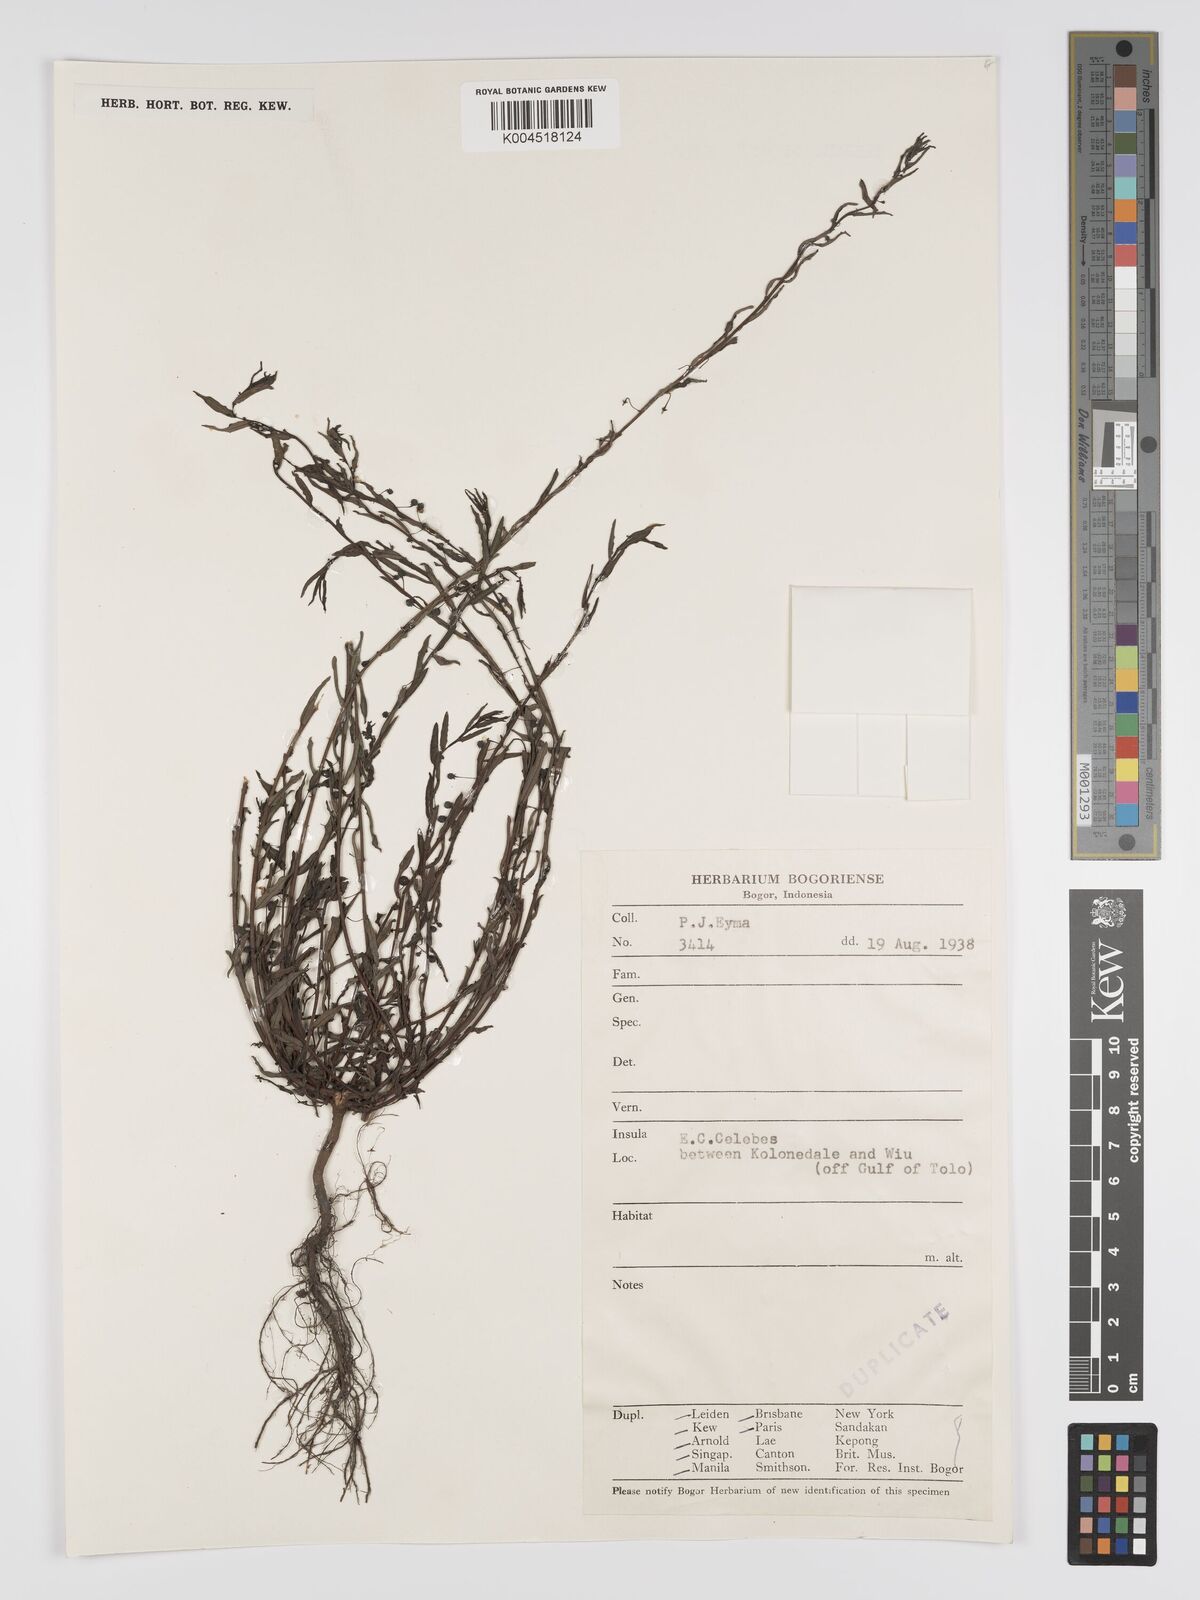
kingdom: Plantae
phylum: Tracheophyta
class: Magnoliopsida
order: Malpighiales
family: Phyllanthaceae
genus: Phyllanthus
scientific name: Phyllanthus virgatus
